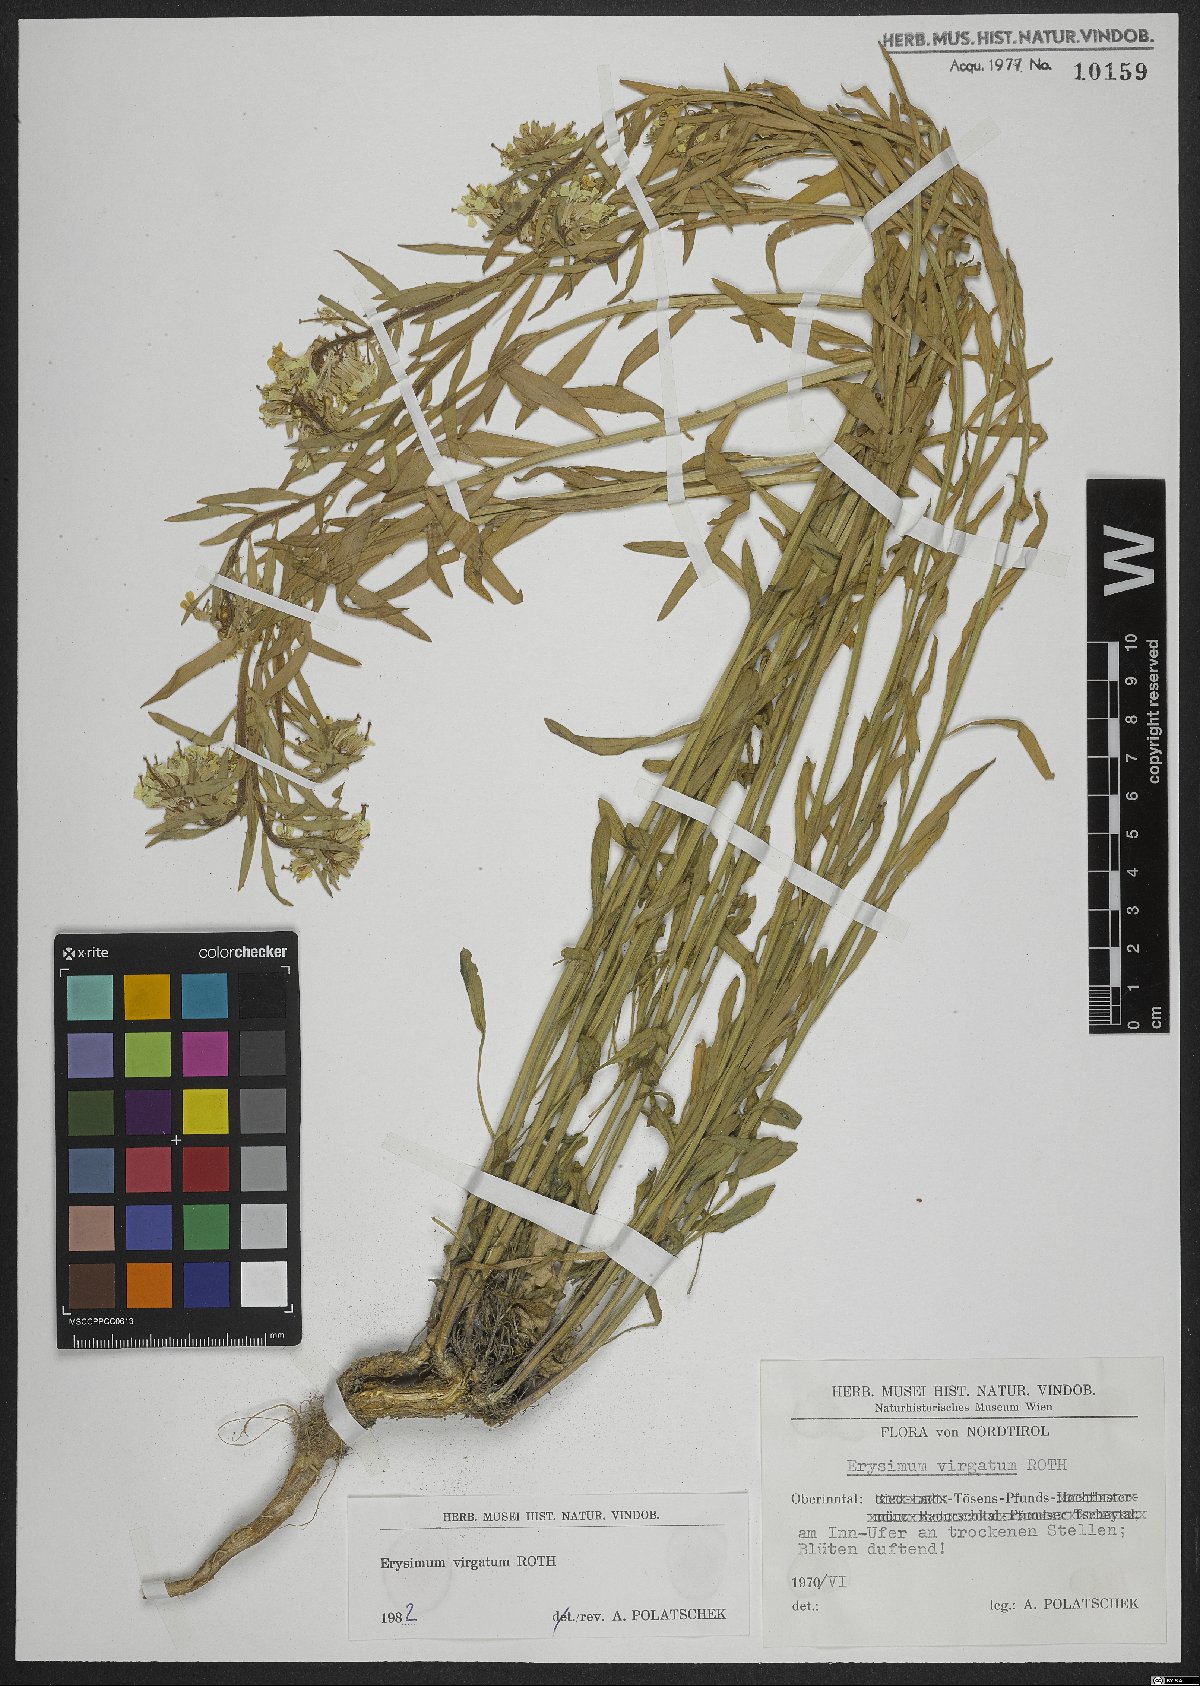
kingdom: Plantae
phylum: Tracheophyta
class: Magnoliopsida
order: Brassicales
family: Brassicaceae
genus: Erysimum
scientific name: Erysimum virgatum
